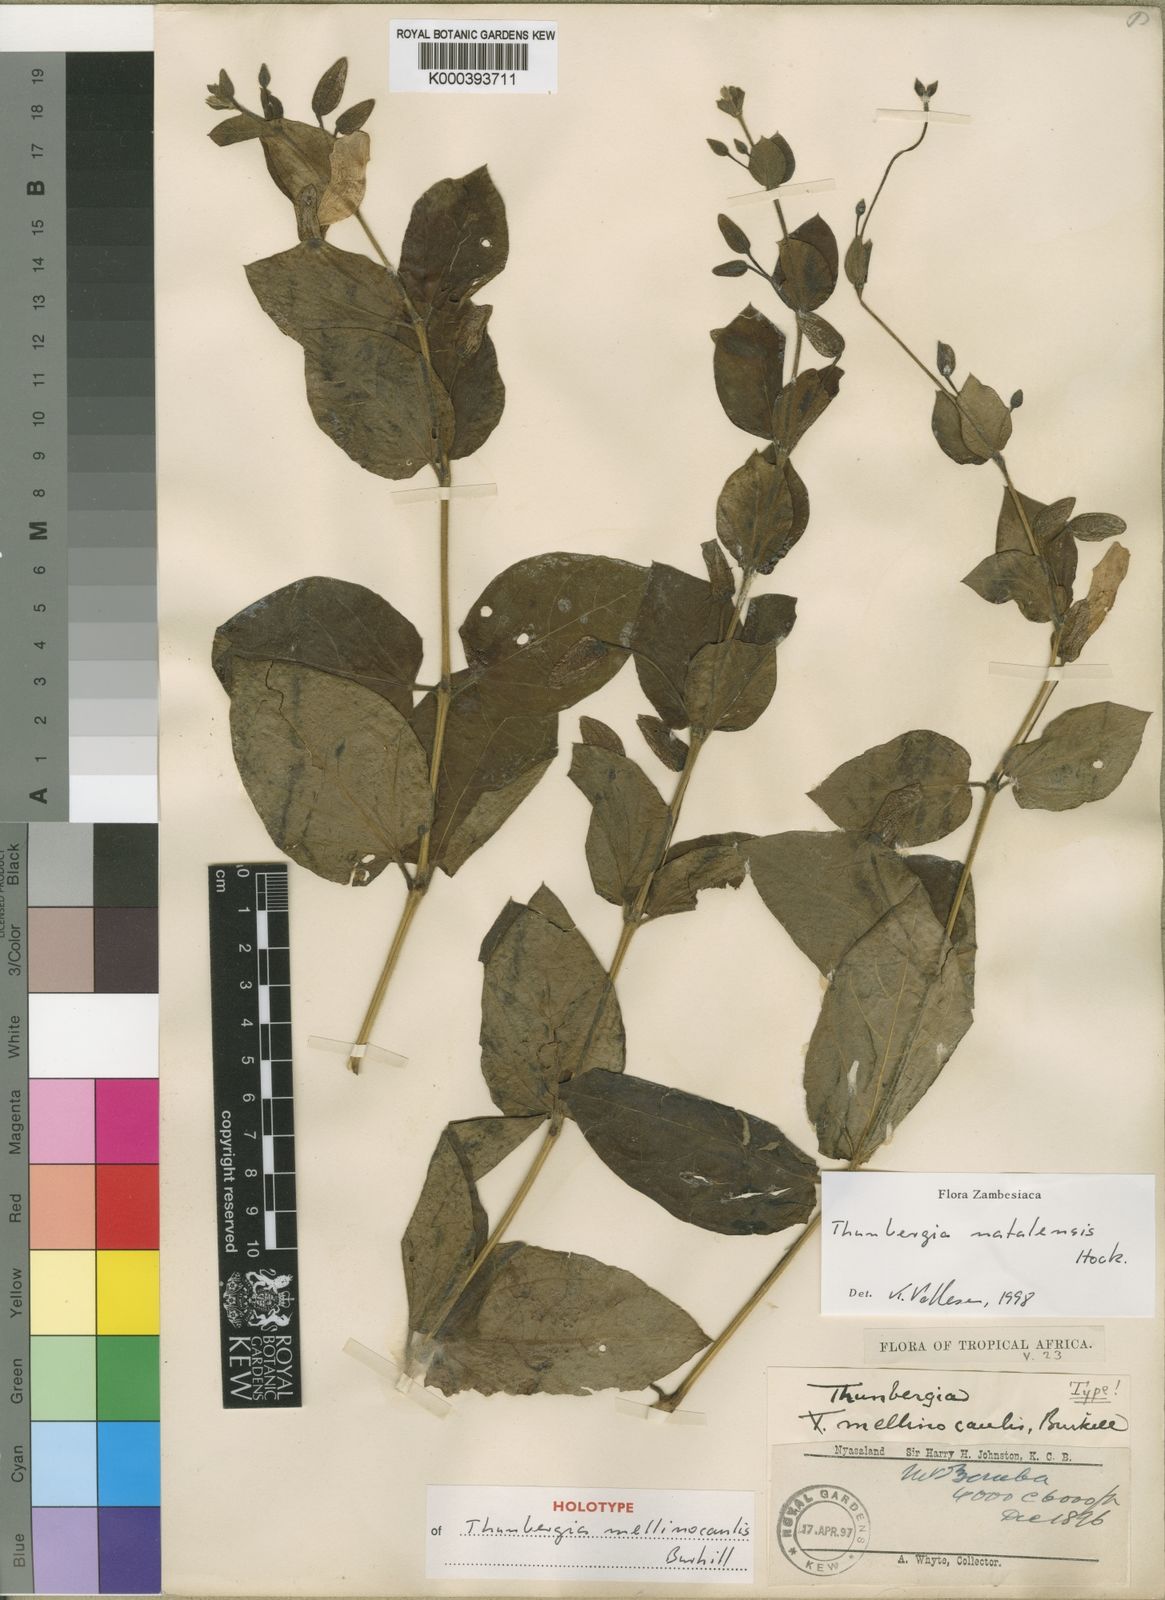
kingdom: Plantae
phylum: Tracheophyta
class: Magnoliopsida
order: Lamiales
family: Acanthaceae
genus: Thunbergia
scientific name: Thunbergia natalensis
